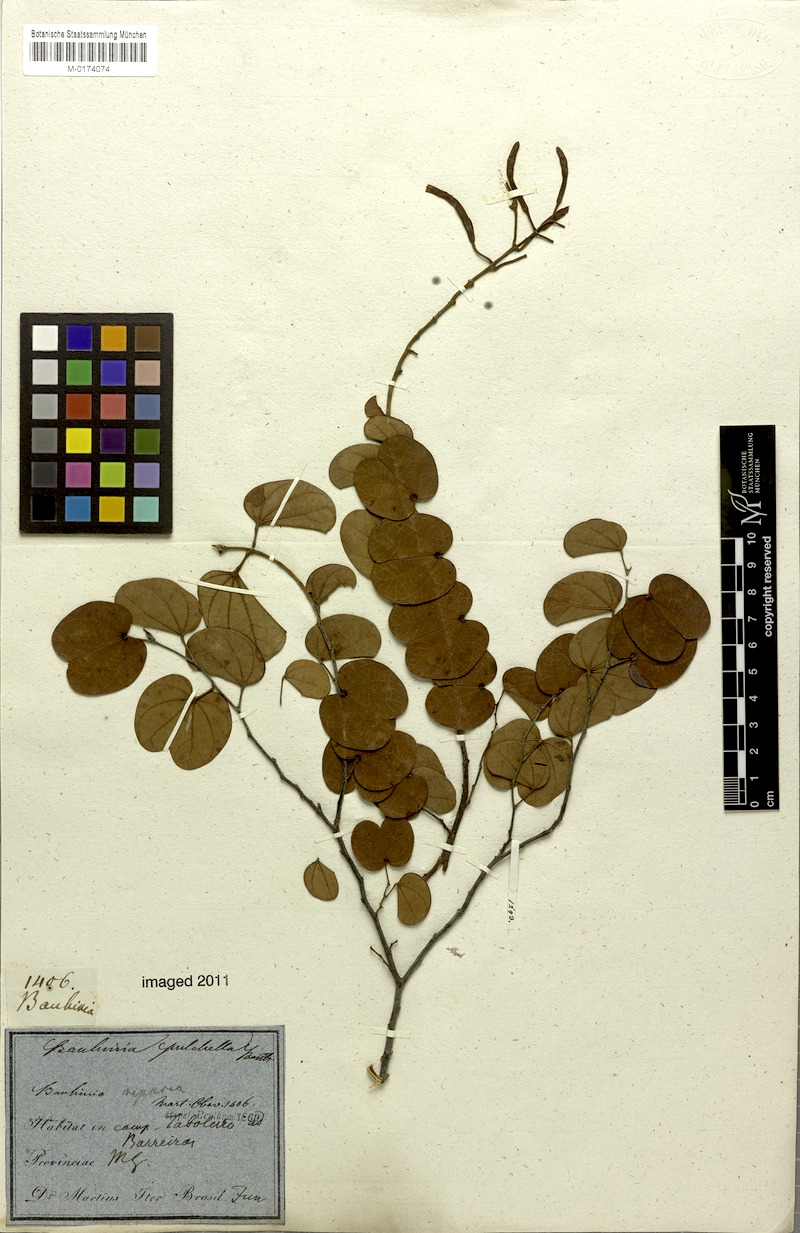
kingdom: Plantae
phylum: Tracheophyta
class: Magnoliopsida
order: Fabales
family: Fabaceae
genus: Bauhinia
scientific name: Bauhinia pulchella
